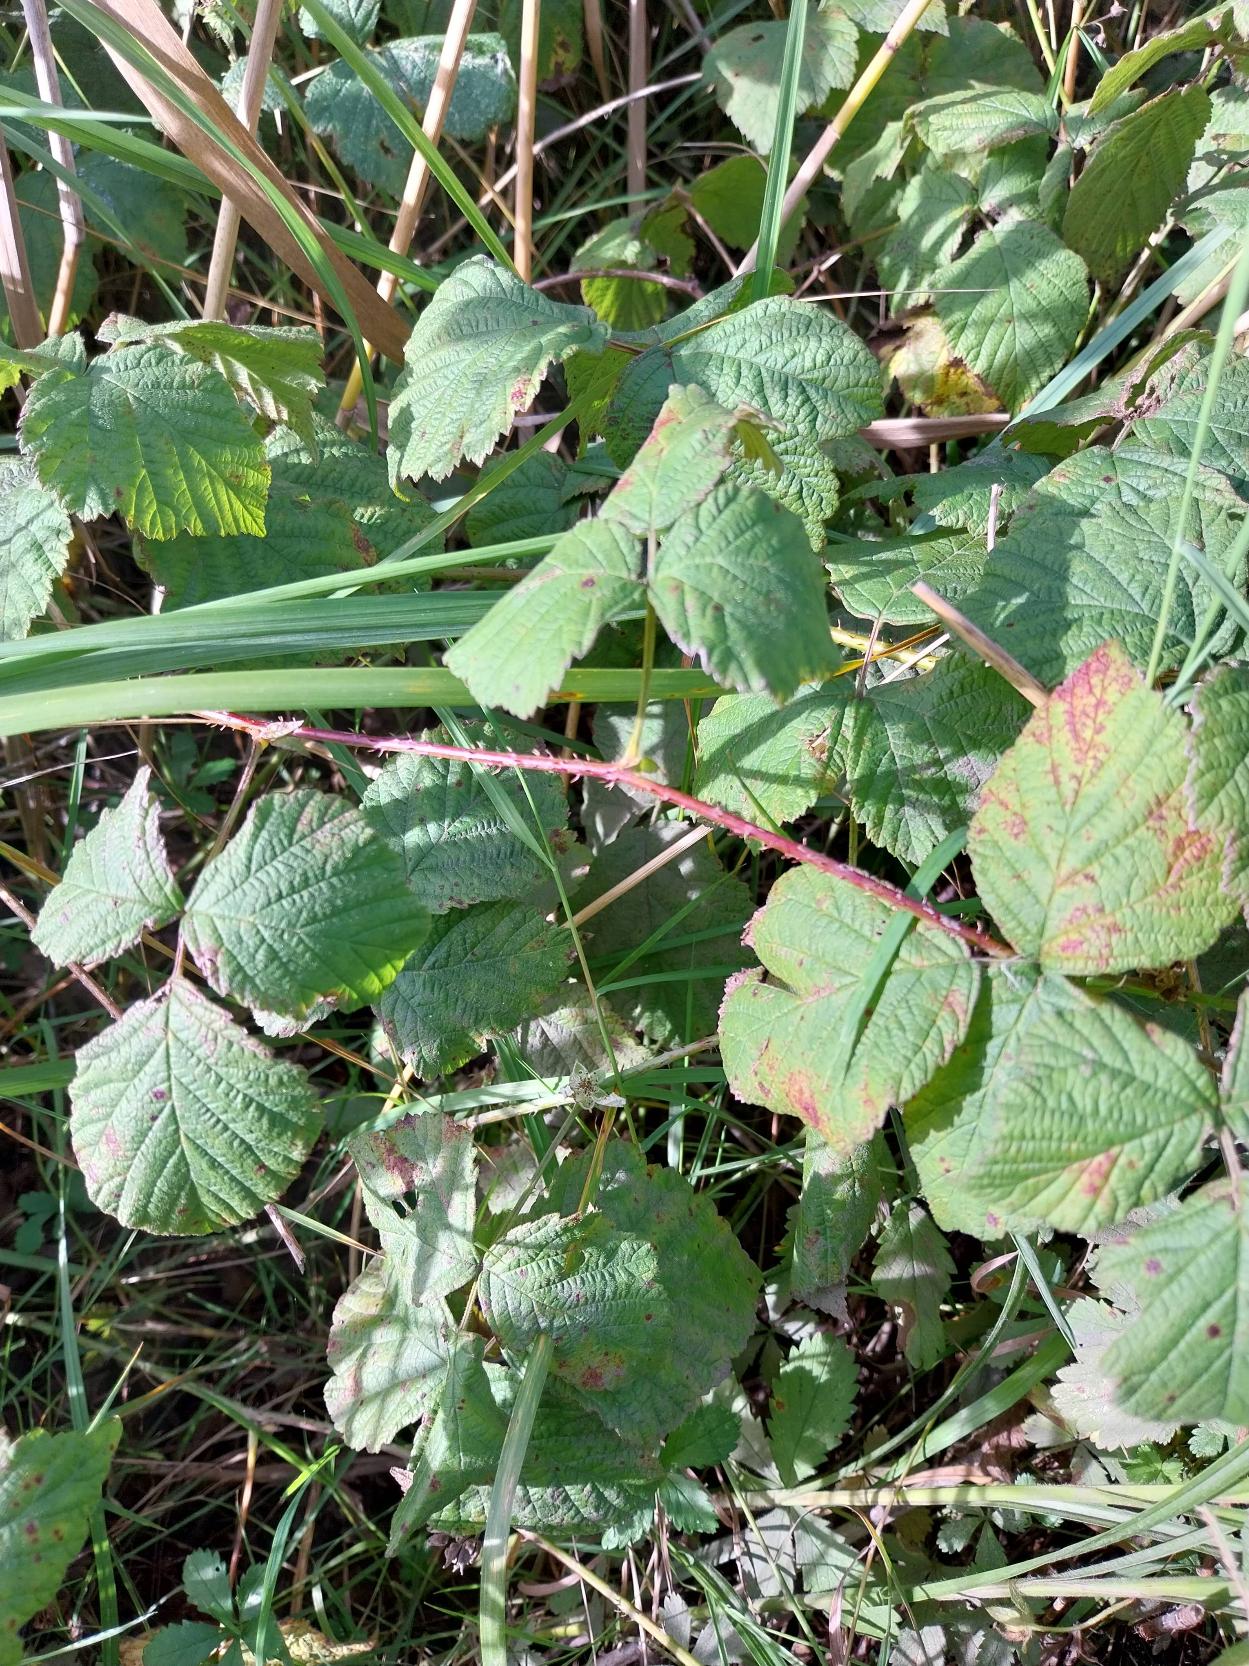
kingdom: Plantae
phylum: Tracheophyta
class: Magnoliopsida
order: Rosales
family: Rosaceae
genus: Rubus
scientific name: Rubus caesius
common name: Korbær
